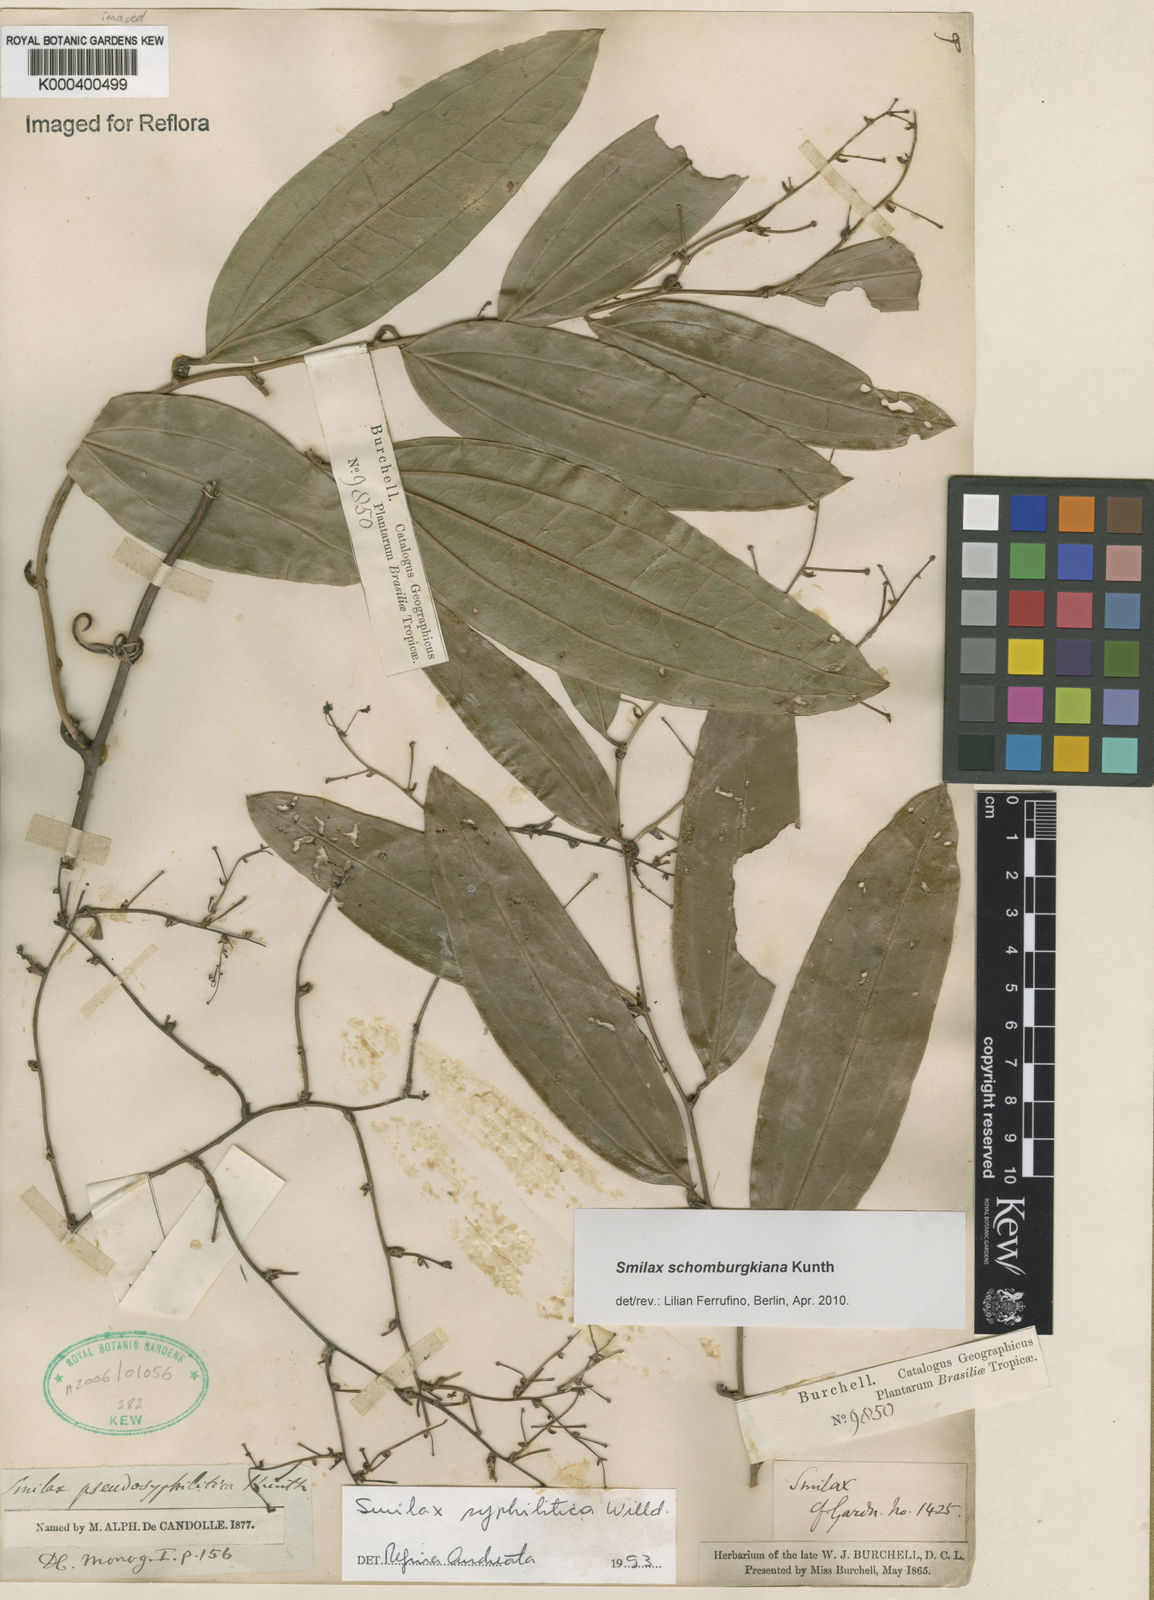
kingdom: Plantae
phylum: Tracheophyta
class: Liliopsida
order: Liliales
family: Smilacaceae
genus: Smilax
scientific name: Smilax schomburgkiana
